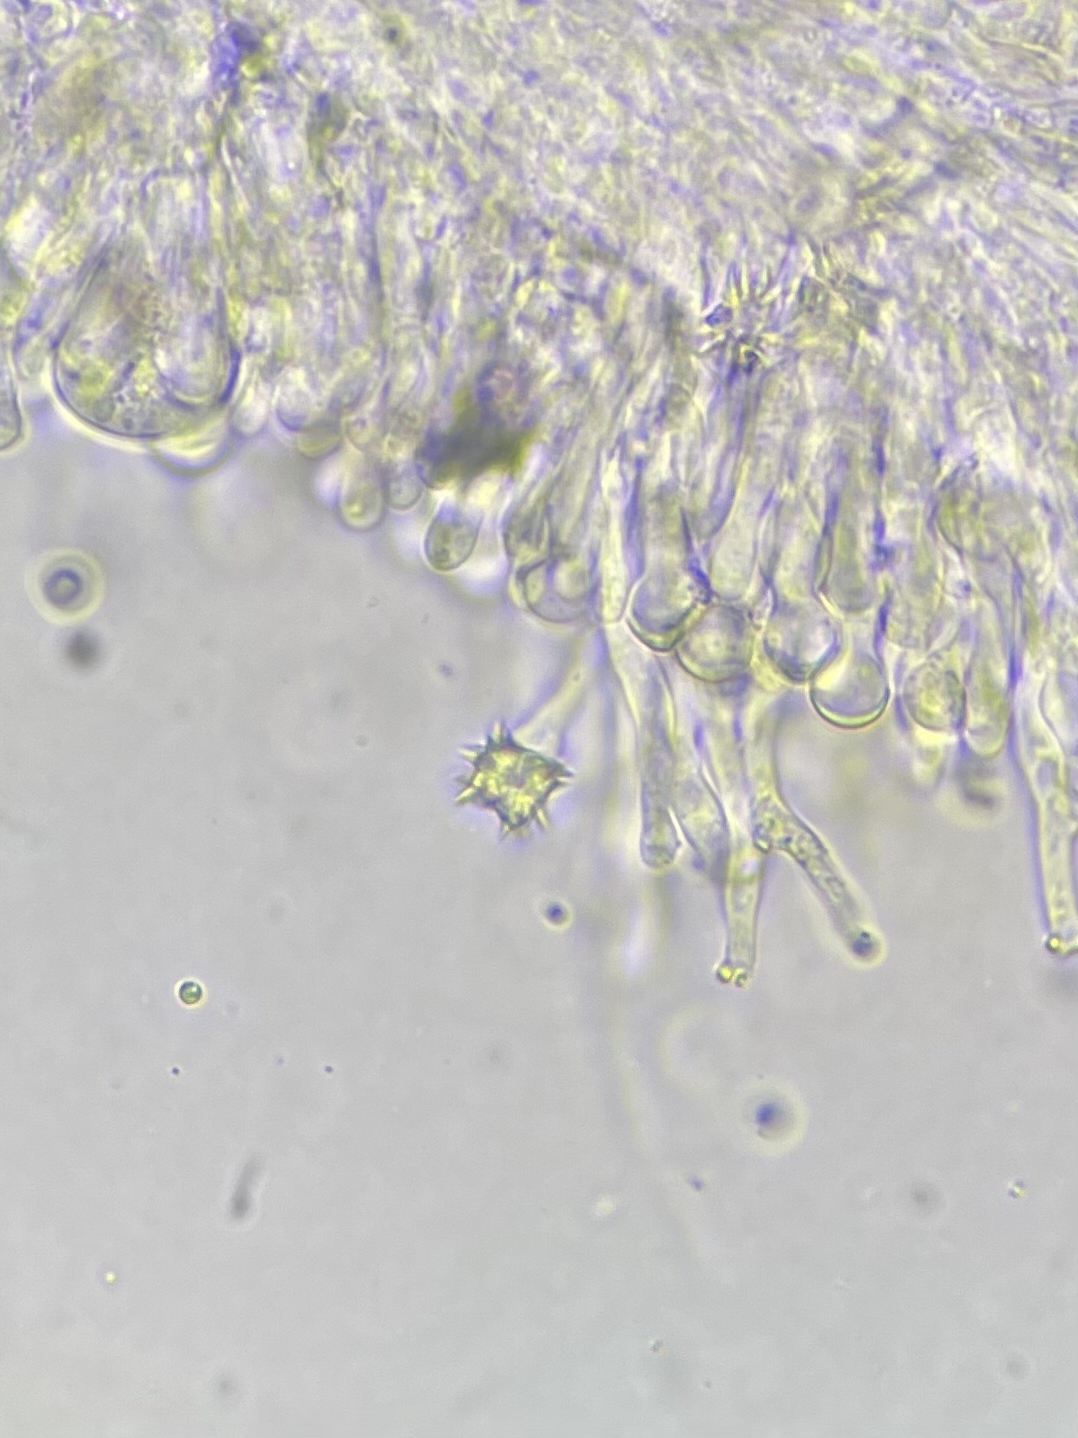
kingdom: Fungi
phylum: Basidiomycota
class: Agaricomycetes
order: Hymenochaetales
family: Rickenellaceae
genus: Resinicium
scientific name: Resinicium bicolor
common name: almindelig vokstand
